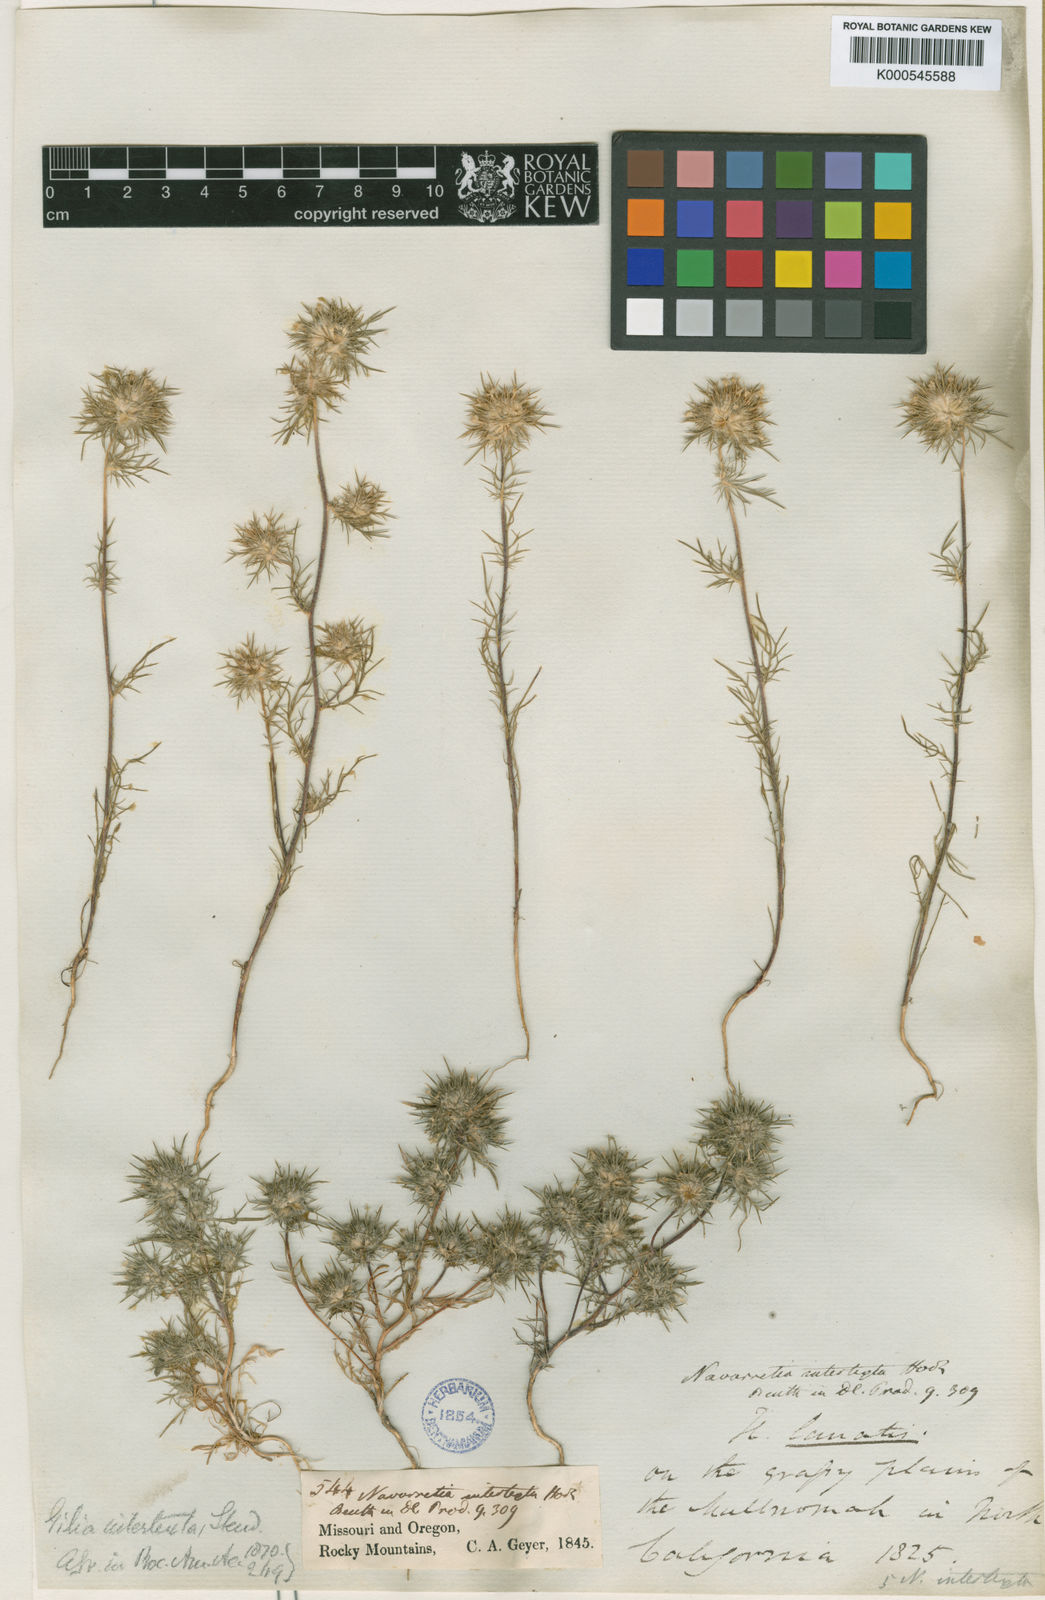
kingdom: Plantae
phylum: Tracheophyta
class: Magnoliopsida
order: Ericales
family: Polemoniaceae
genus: Navarretia
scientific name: Navarretia intertexta
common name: Needle-leaved navarretia
